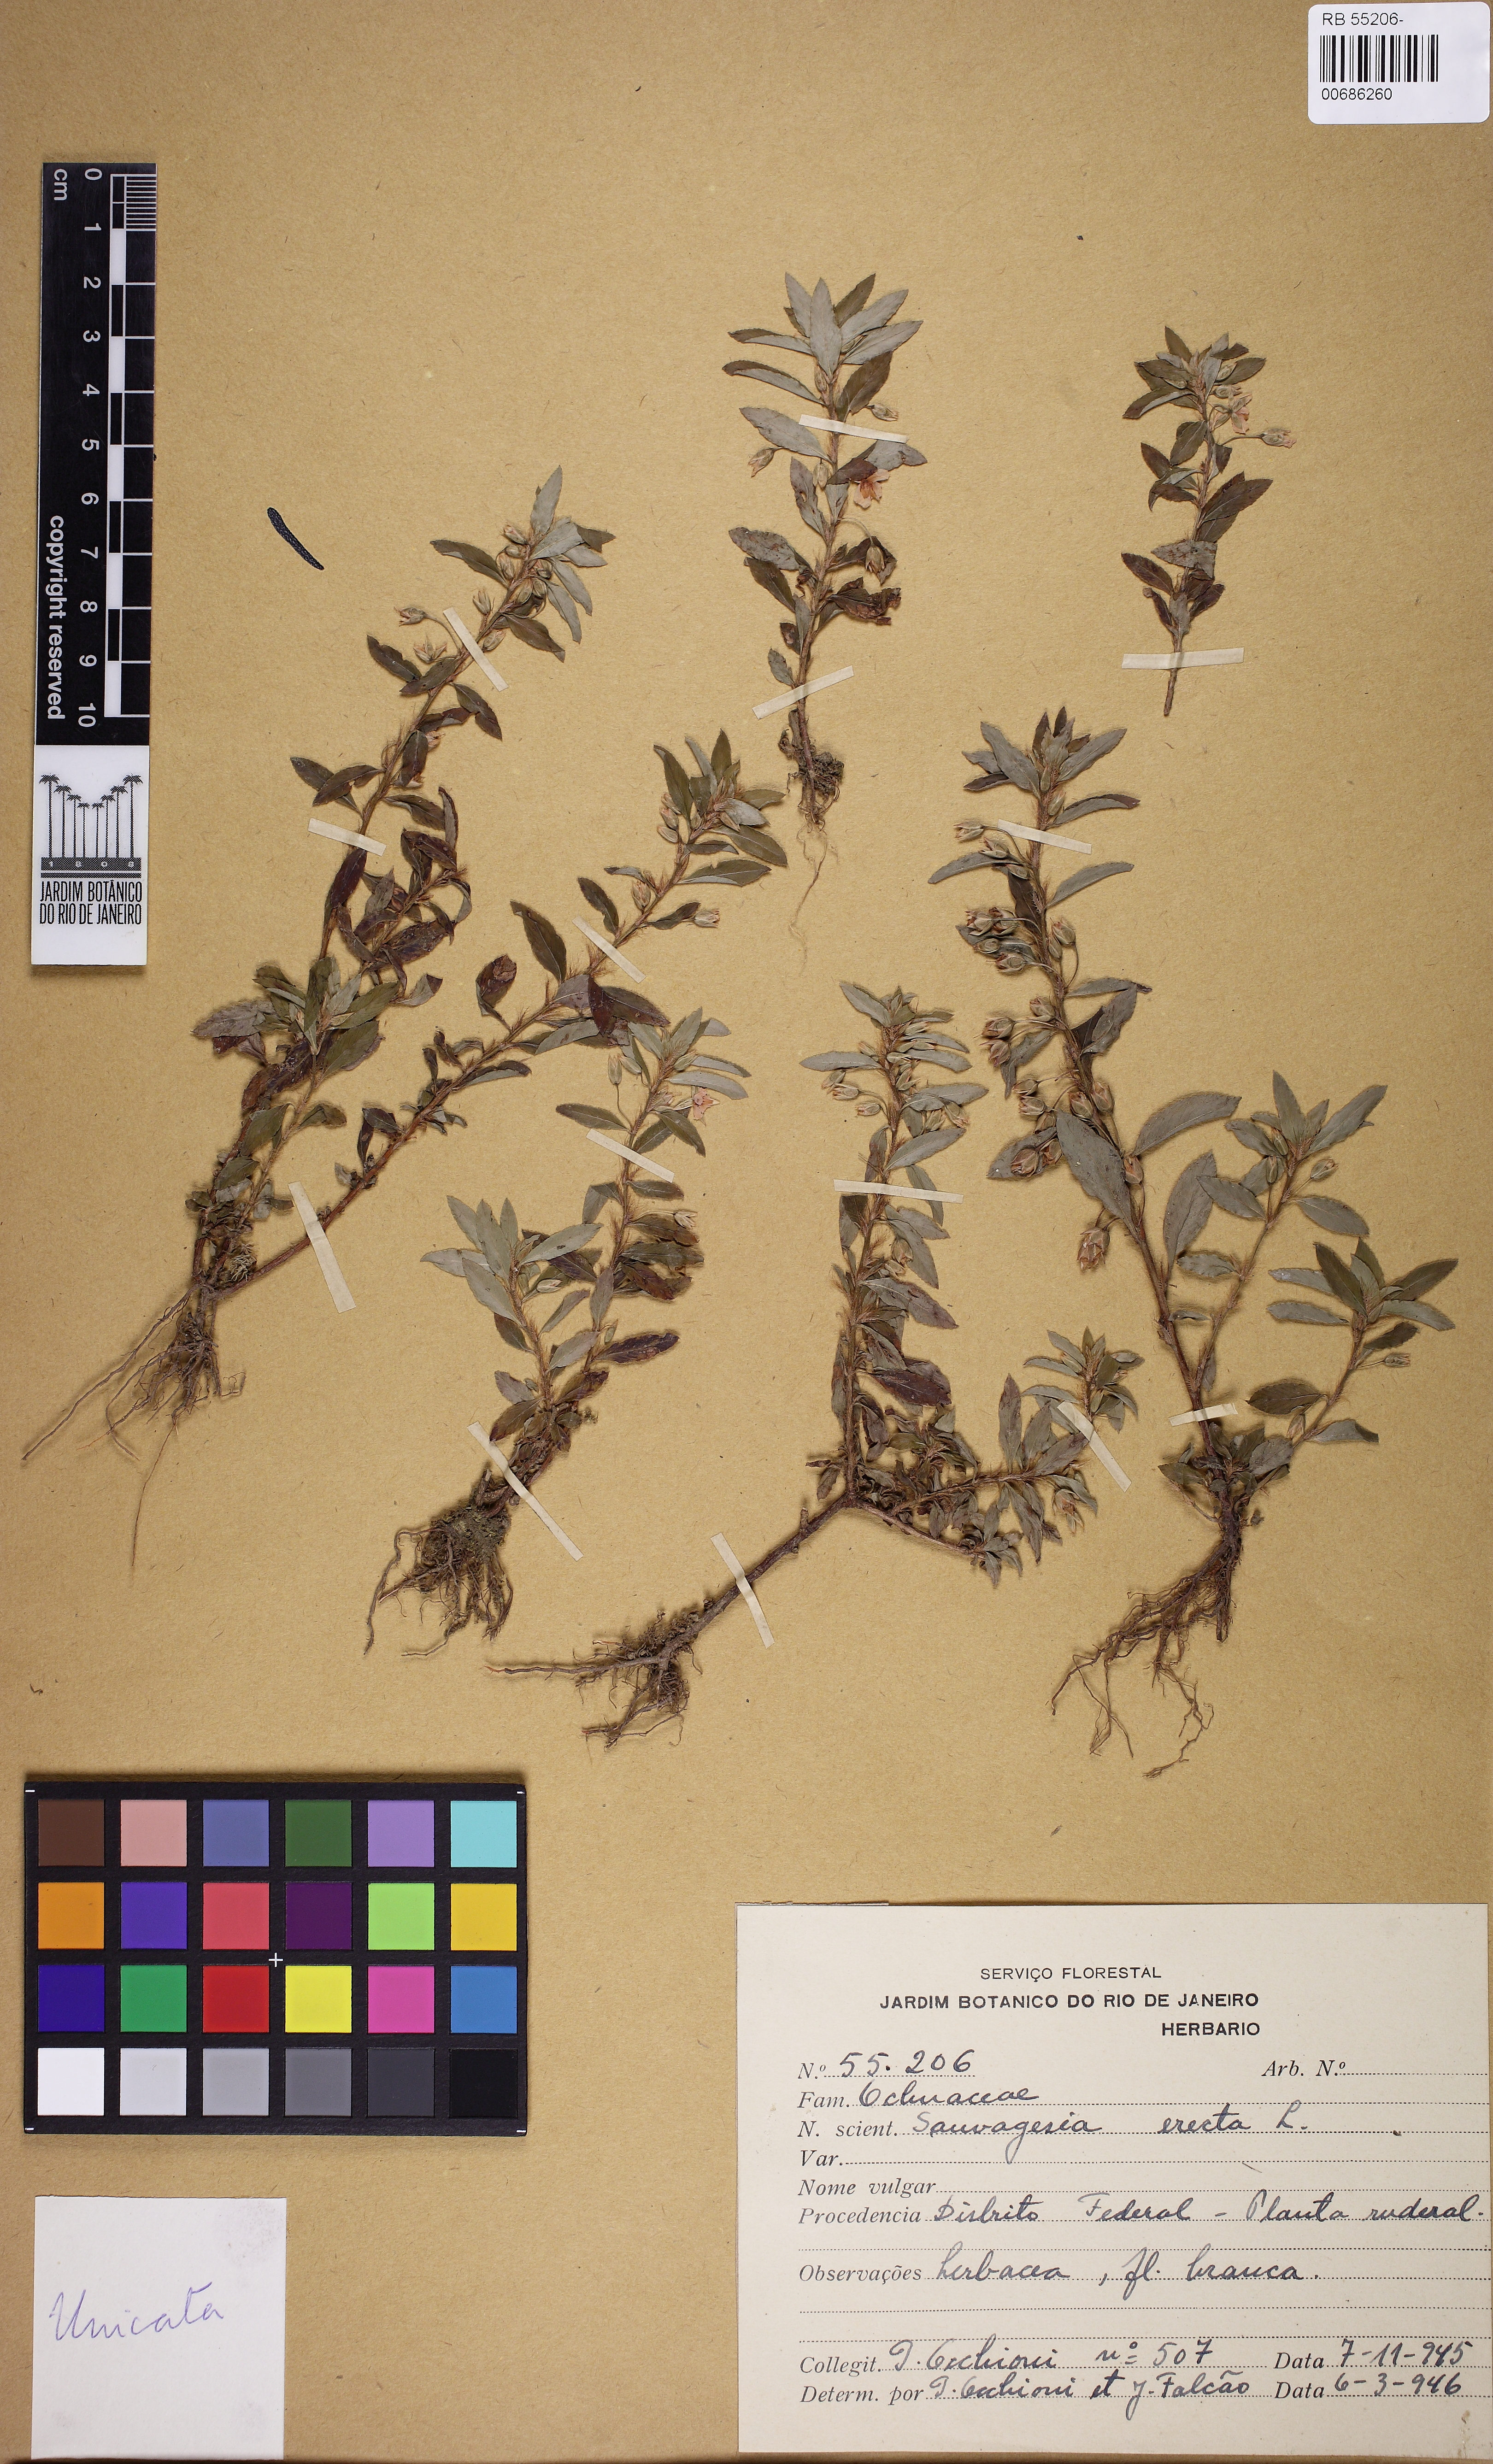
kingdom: Plantae
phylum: Tracheophyta
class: Magnoliopsida
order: Malpighiales
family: Ochnaceae
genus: Sauvagesia
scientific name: Sauvagesia erecta
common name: Creole tea
